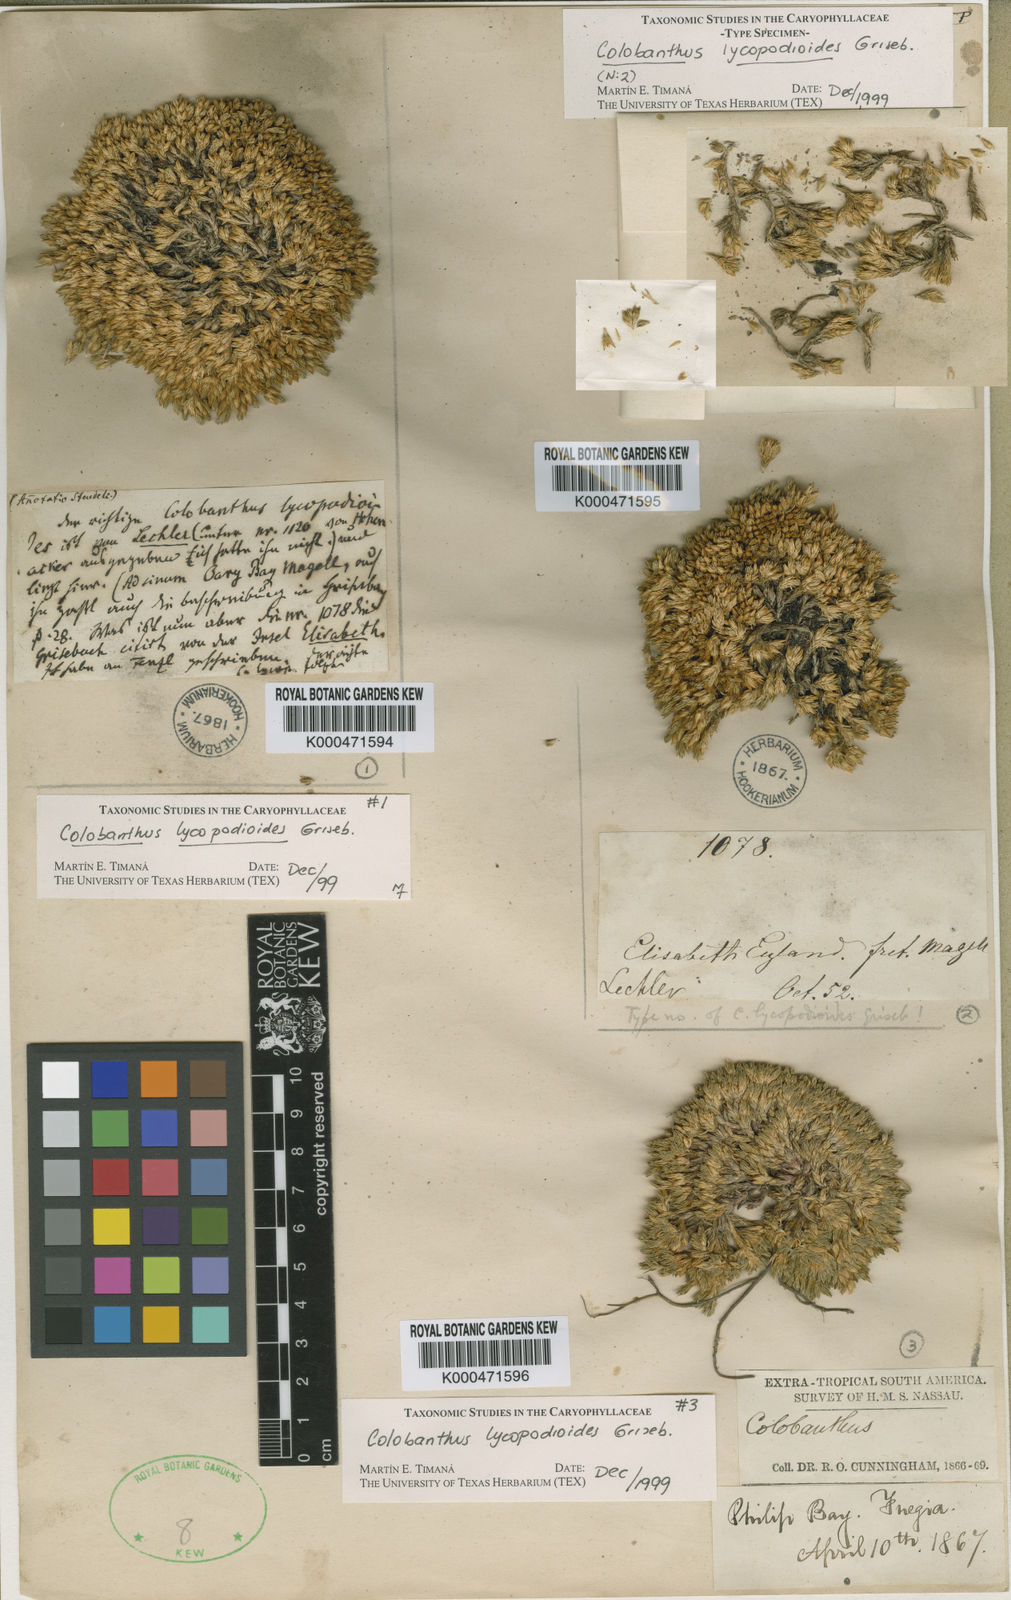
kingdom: Plantae
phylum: Tracheophyta
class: Magnoliopsida
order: Caryophyllales
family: Caryophyllaceae
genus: Colobanthus
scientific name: Colobanthus
